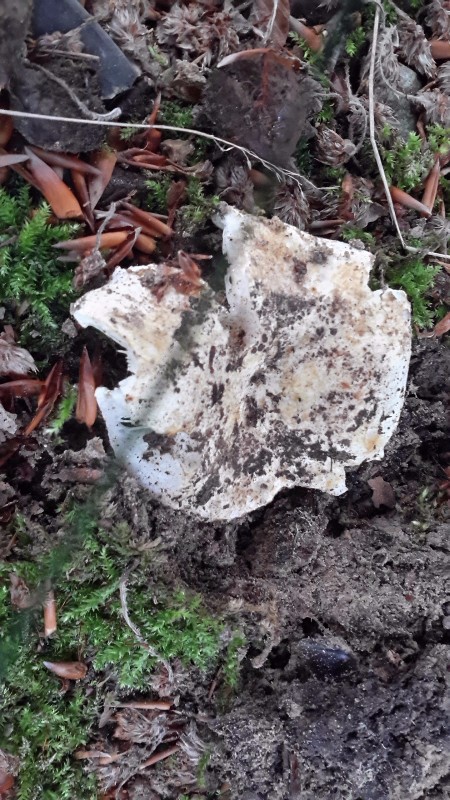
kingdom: Fungi
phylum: Basidiomycota
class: Agaricomycetes
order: Russulales
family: Russulaceae
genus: Russula
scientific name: Russula chloroides
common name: grønhalset tragt-skørhat
